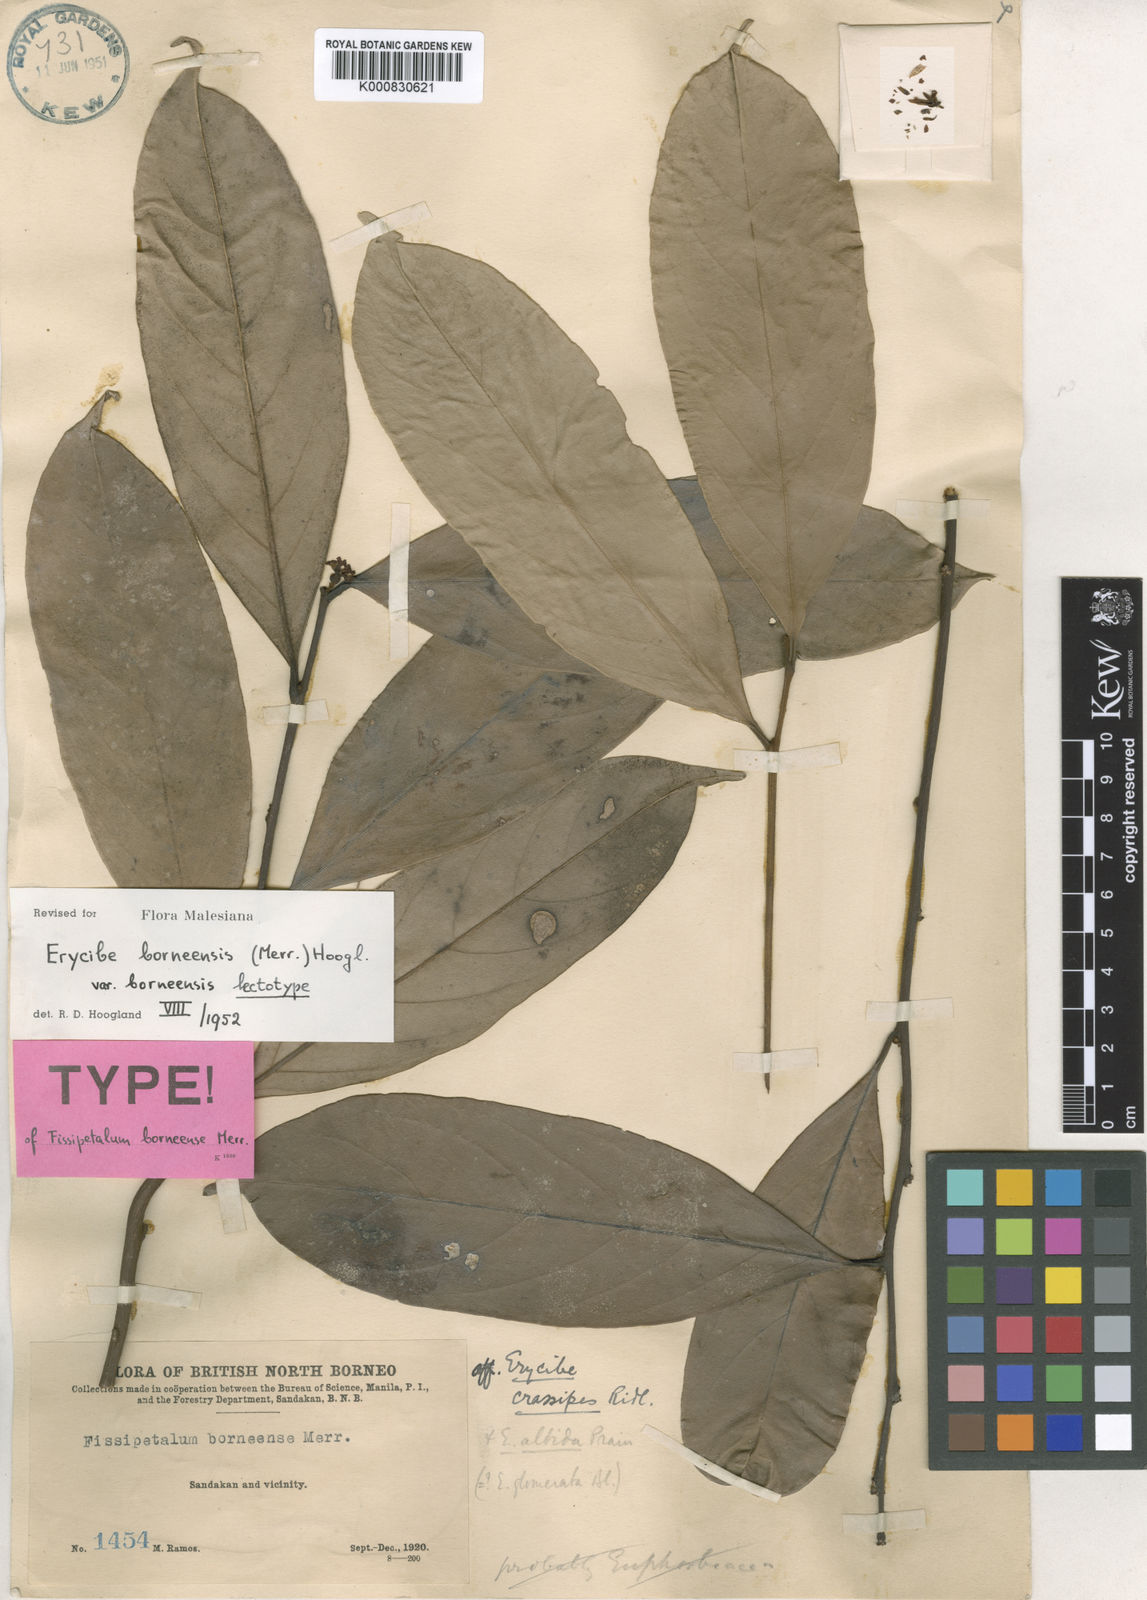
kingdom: Plantae
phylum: Tracheophyta
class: Magnoliopsida
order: Solanales
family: Convolvulaceae
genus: Erycibe
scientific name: Erycibe borneensis
